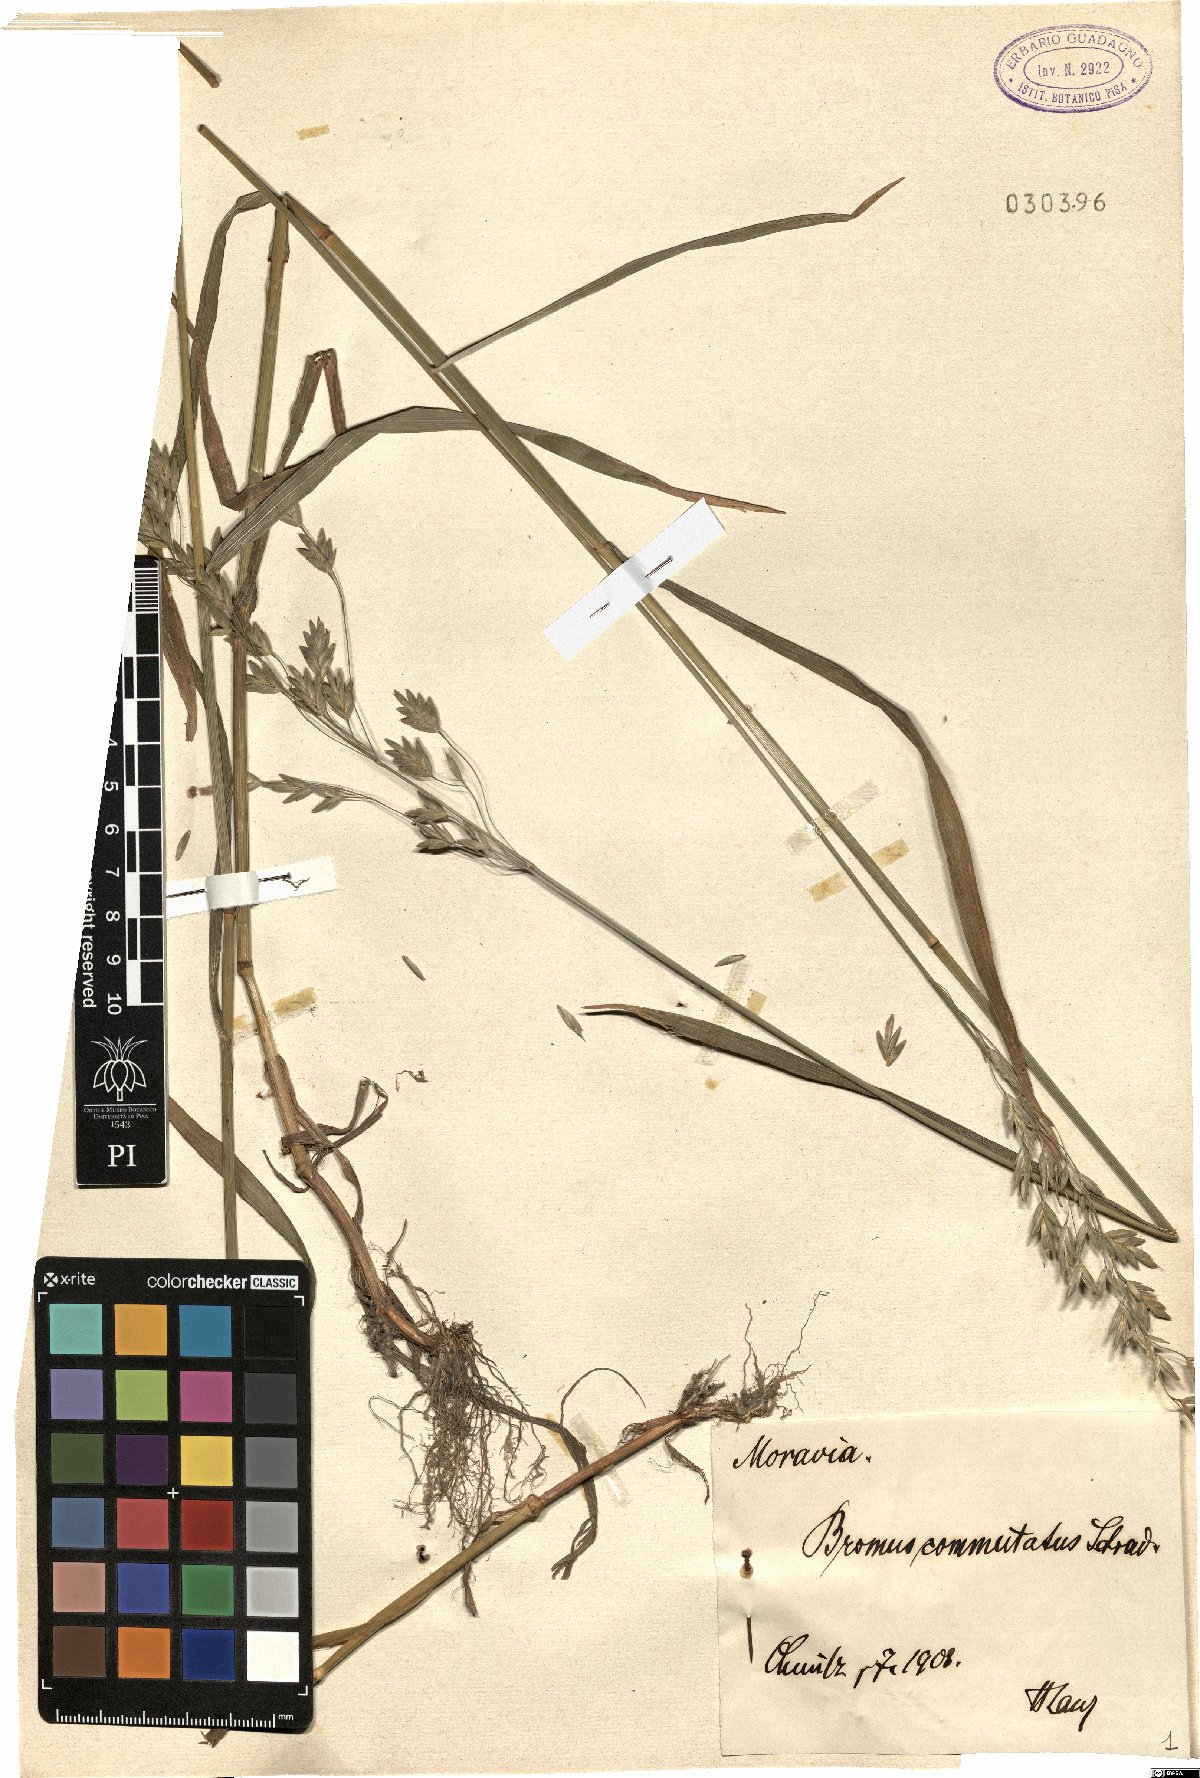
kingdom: Plantae
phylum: Tracheophyta
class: Liliopsida
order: Poales
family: Poaceae
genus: Bromus
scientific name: Bromus commutatus
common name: Meadow brome
